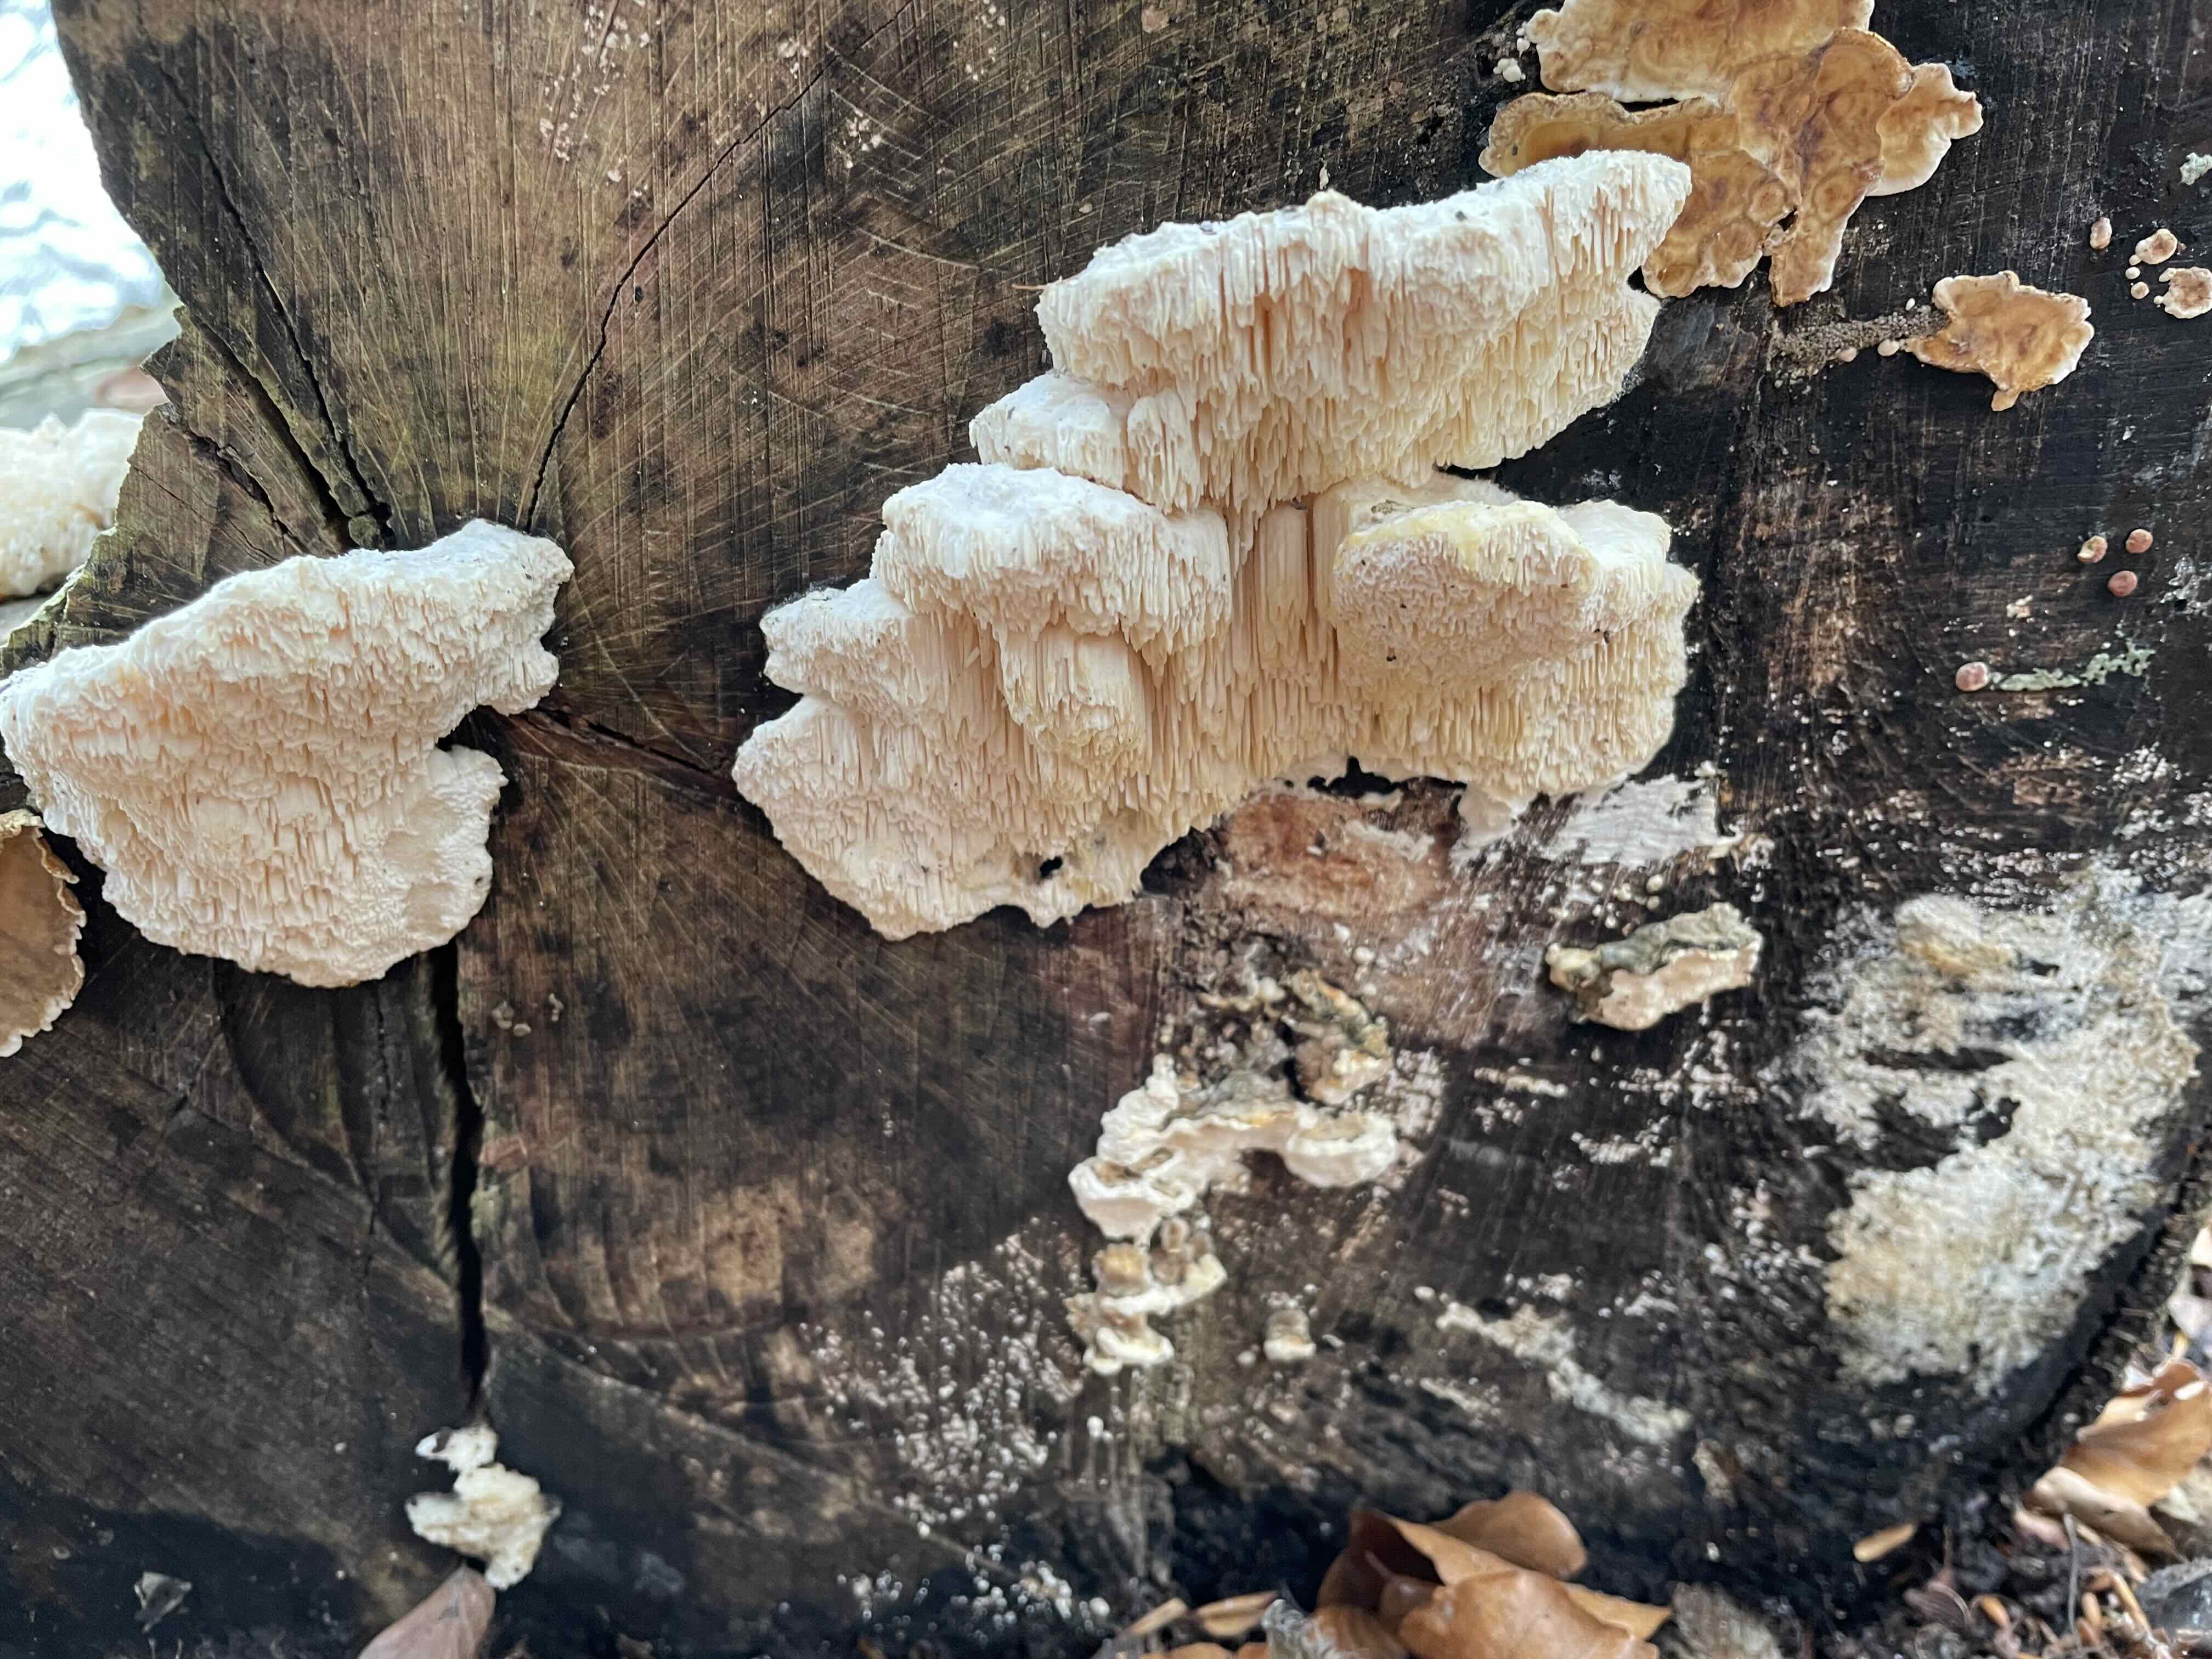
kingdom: Fungi
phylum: Basidiomycota
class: Agaricomycetes
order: Polyporales
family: Cerrenaceae
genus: Pseudospongipellis
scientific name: Pseudospongipellis delectans
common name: labyrint-skumporesvamp
